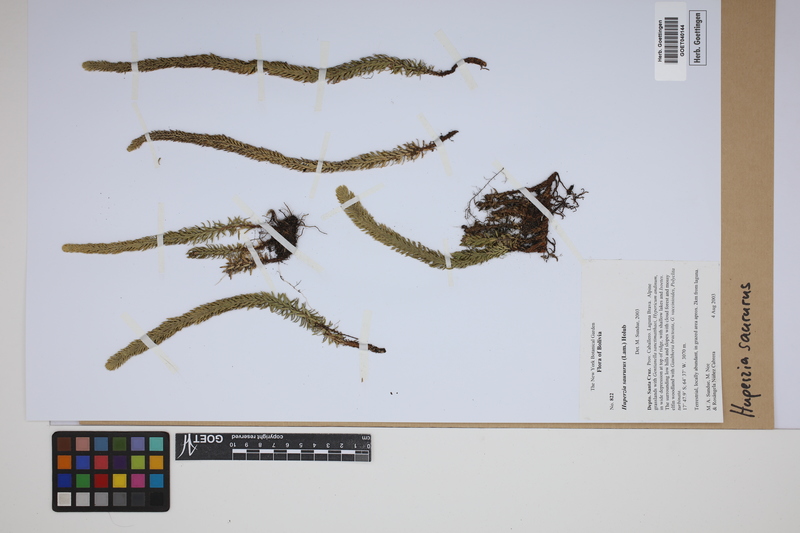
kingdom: Plantae
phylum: Tracheophyta
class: Lycopodiopsida
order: Lycopodiales
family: Lycopodiaceae
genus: Phlegmariurus
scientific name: Phlegmariurus saururus
